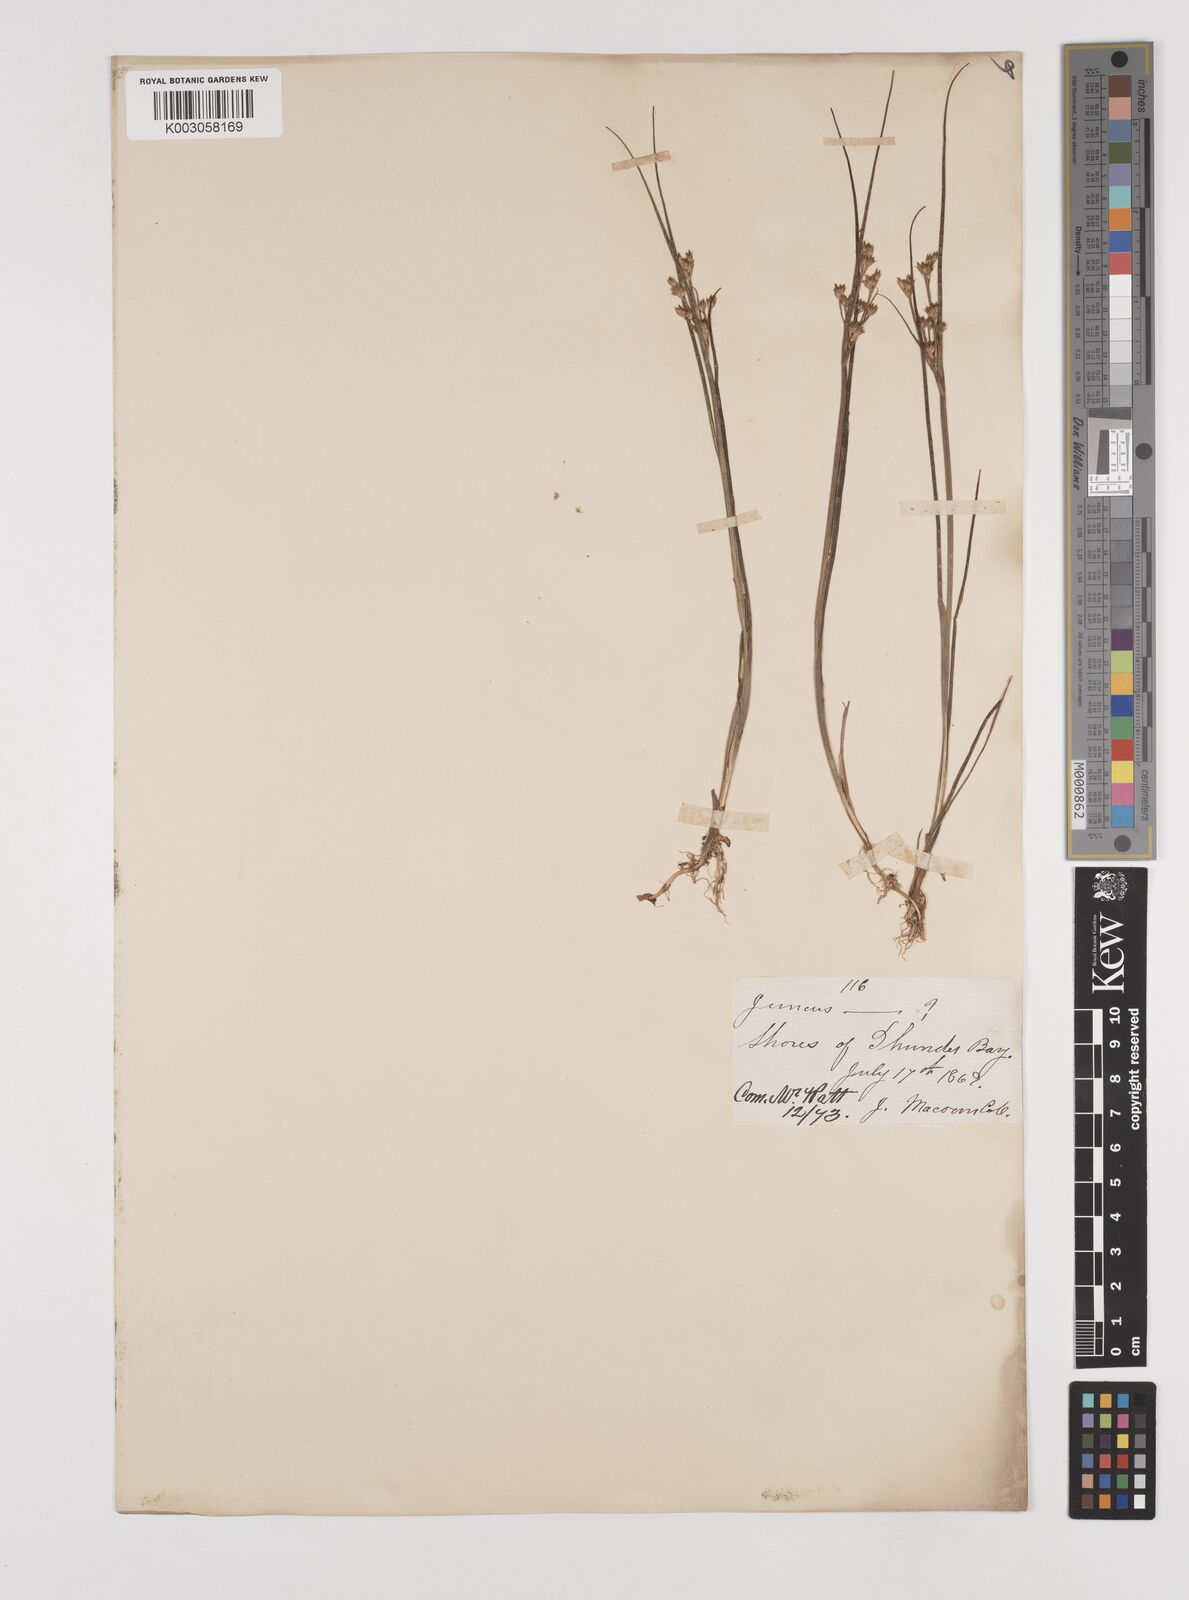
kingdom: Plantae
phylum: Tracheophyta
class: Liliopsida
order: Poales
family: Juncaceae
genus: Juncus
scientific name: Juncus
